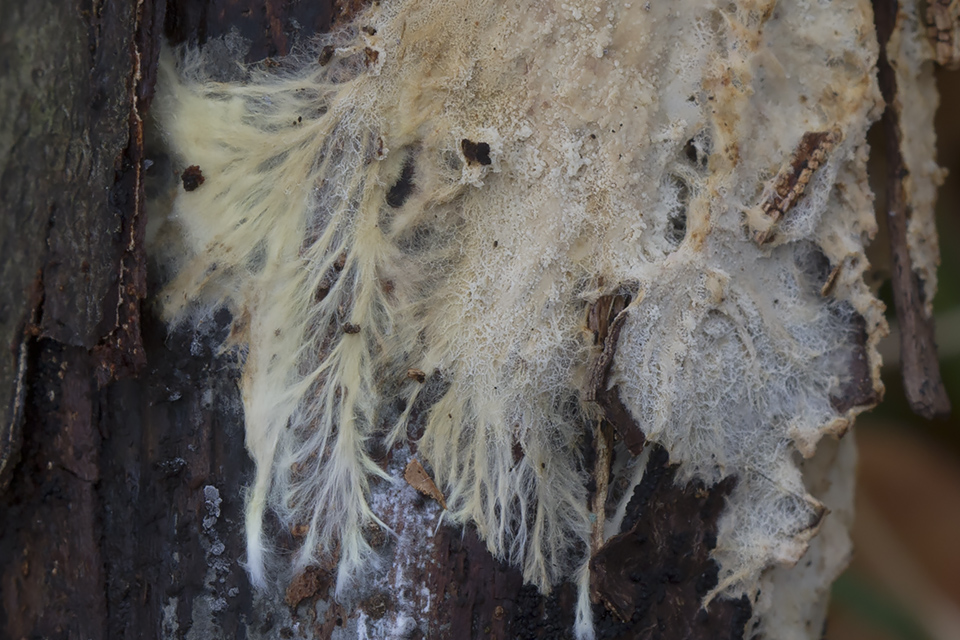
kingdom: Fungi
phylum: Basidiomycota
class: Agaricomycetes
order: Russulales
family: Xenasmataceae
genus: Xenasmatella
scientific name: Xenasmatella vaga
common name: svovl-strenghinde
